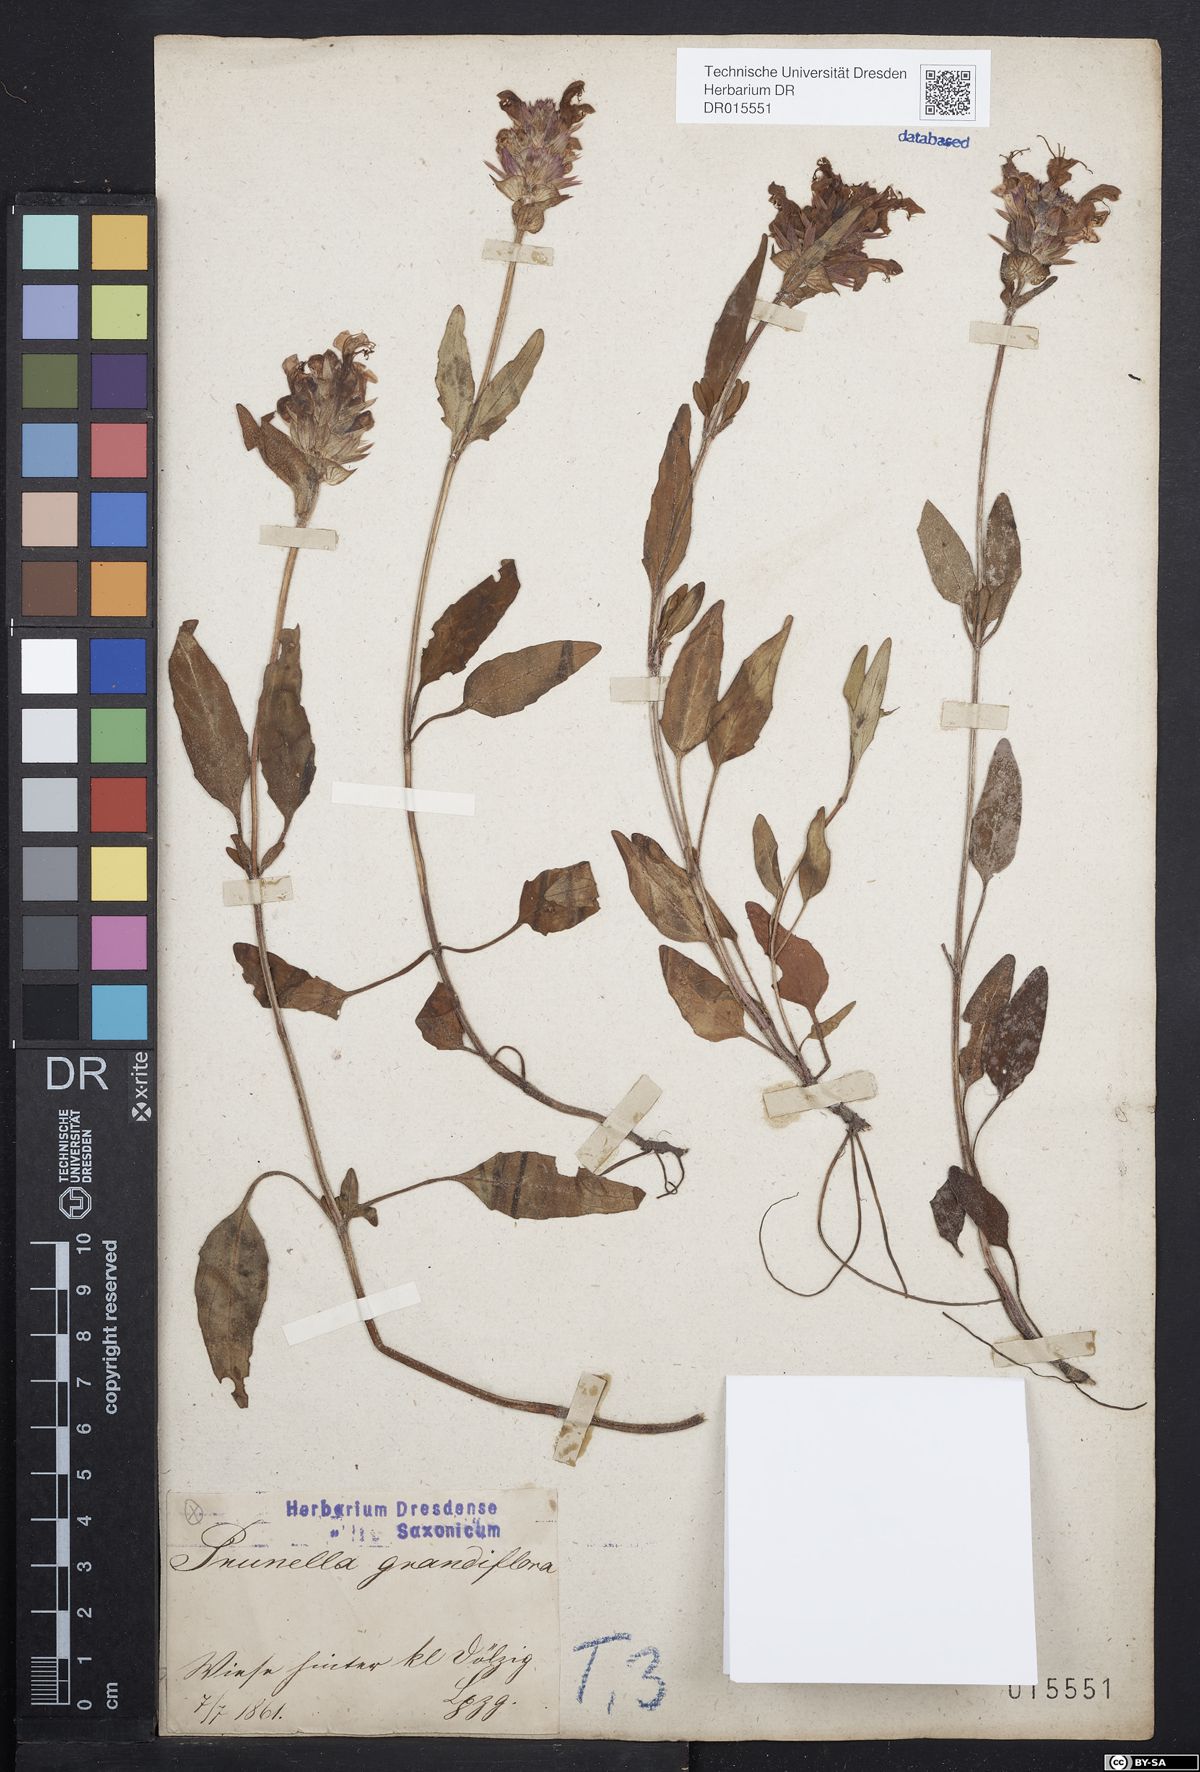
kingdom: Plantae
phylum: Tracheophyta
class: Magnoliopsida
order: Lamiales
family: Lamiaceae
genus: Prunella
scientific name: Prunella grandiflora
